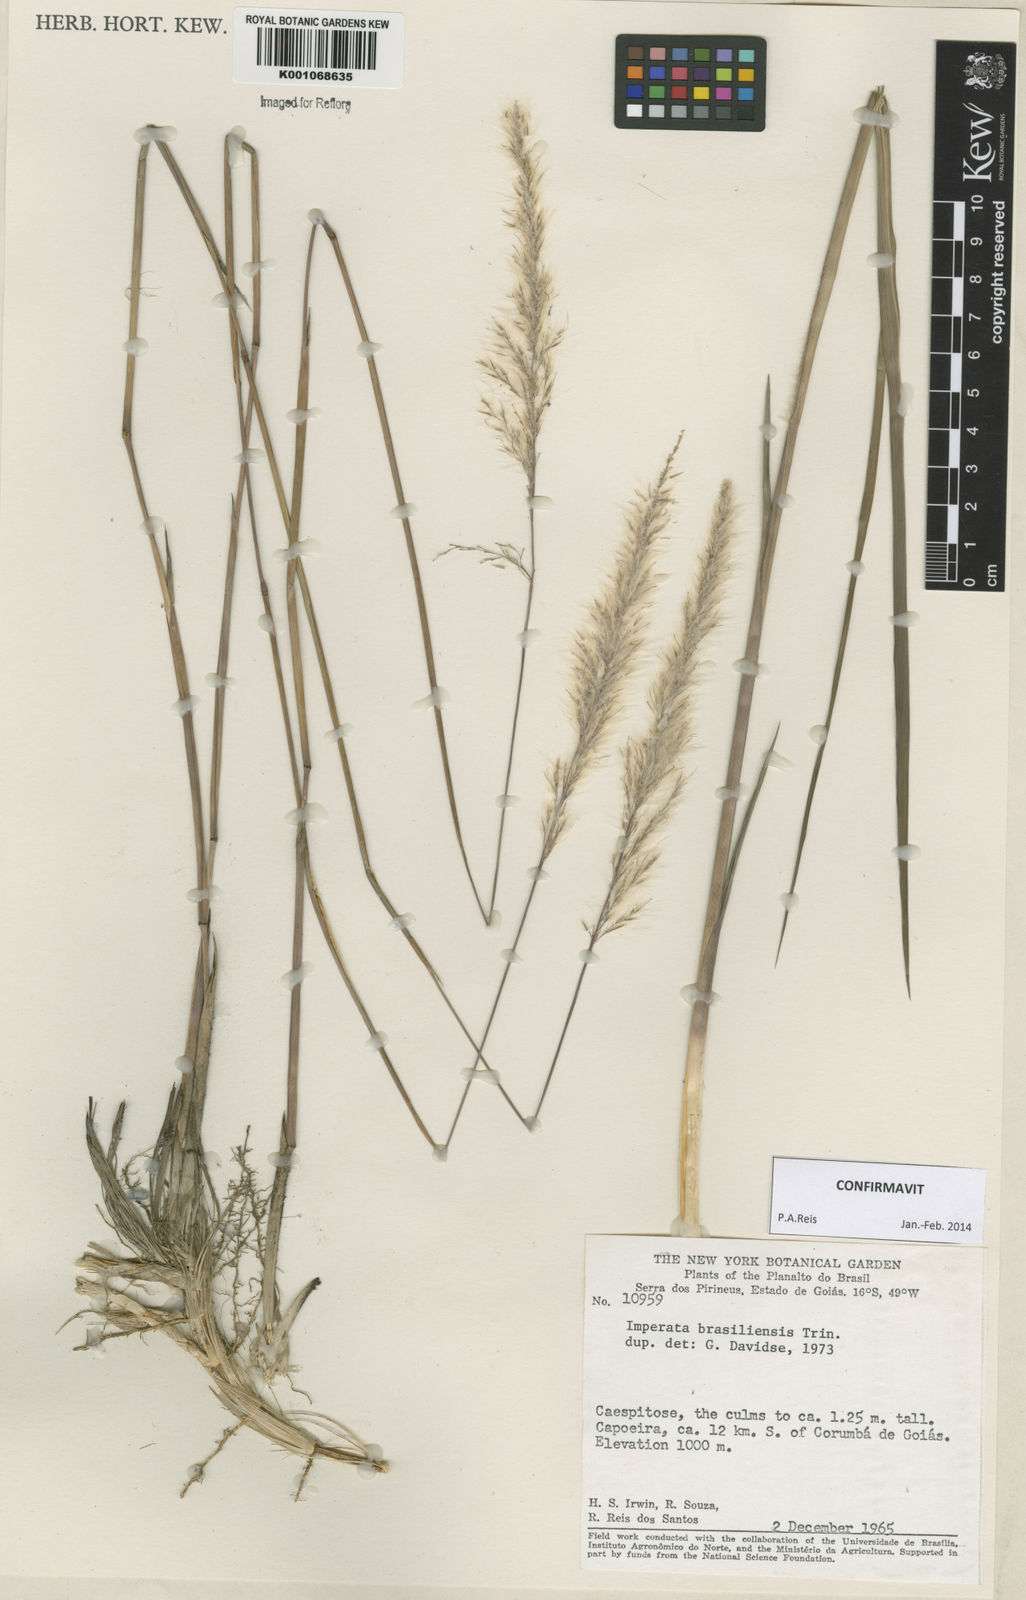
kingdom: Plantae
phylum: Tracheophyta
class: Liliopsida
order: Poales
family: Poaceae
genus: Imperata
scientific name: Imperata brasiliensis
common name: Brazilian satintail
